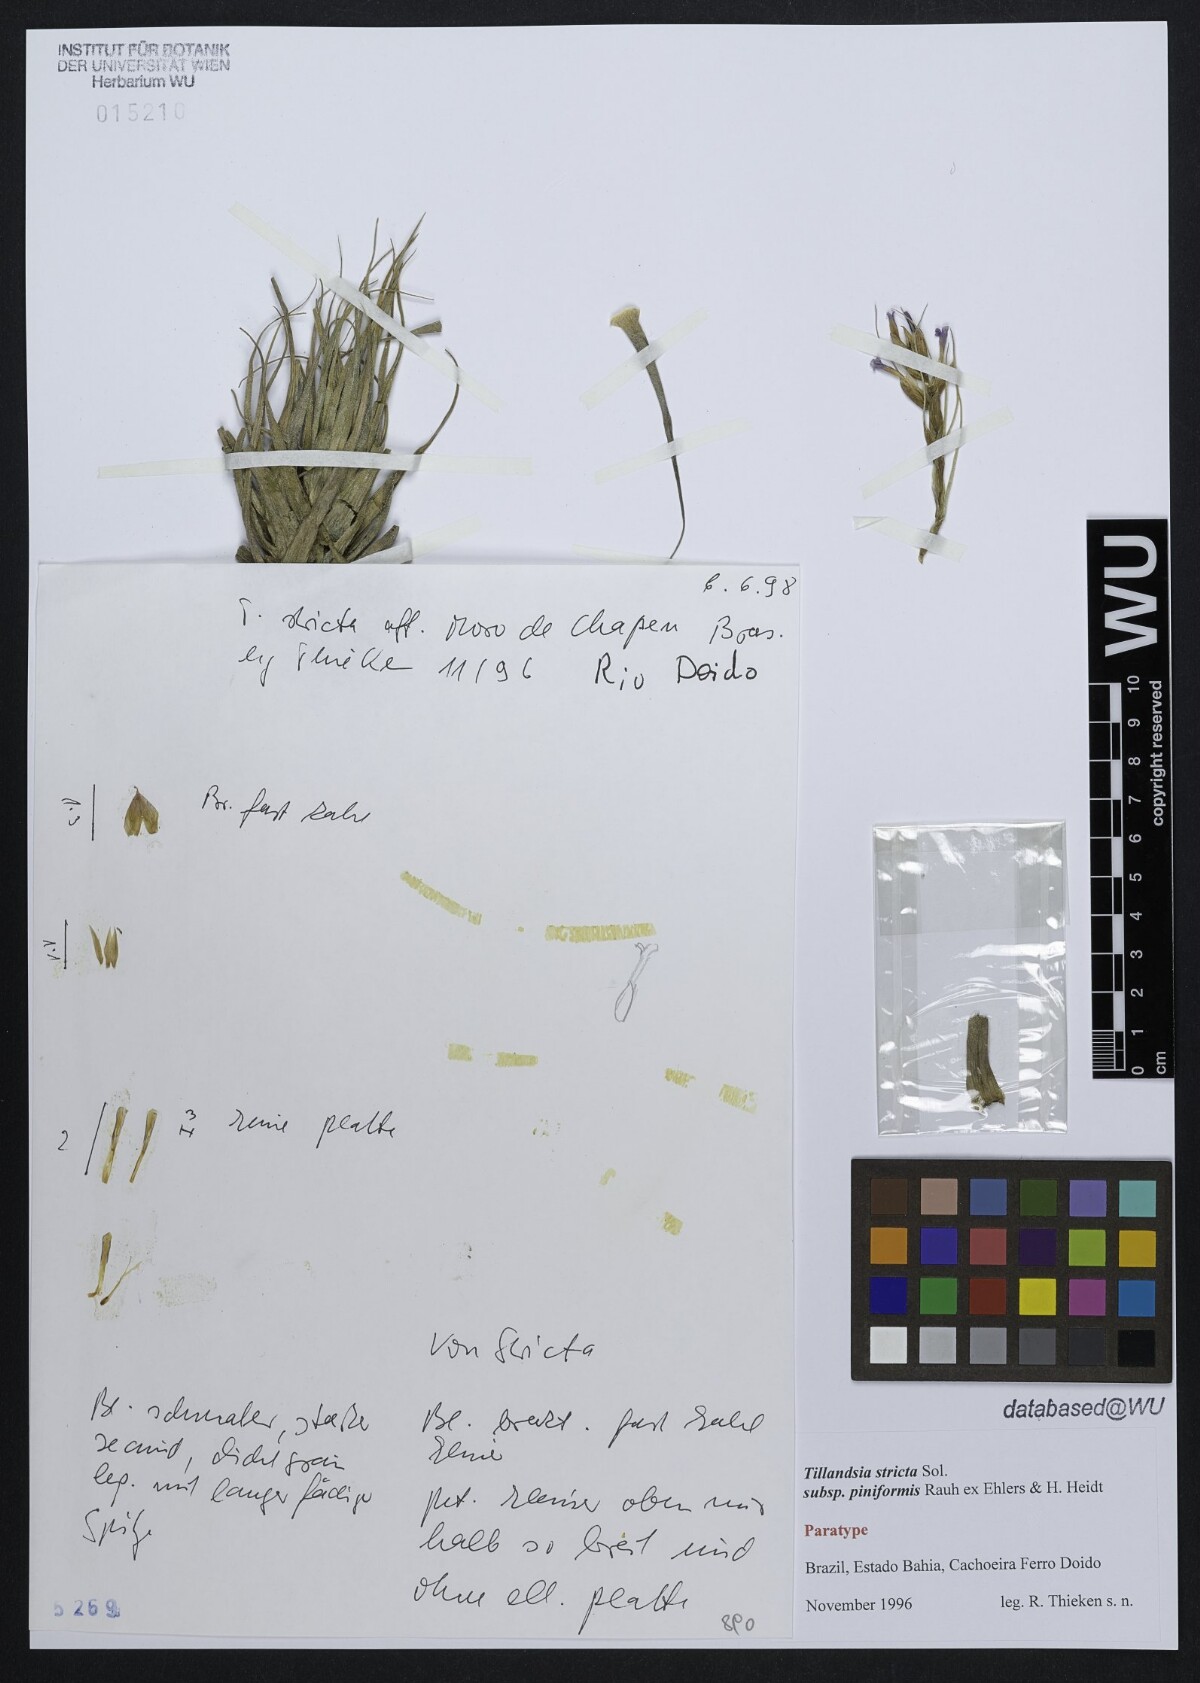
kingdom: Plantae
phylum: Tracheophyta
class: Liliopsida
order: Poales
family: Bromeliaceae
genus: Tillandsia
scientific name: Tillandsia stricta
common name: Airplant
